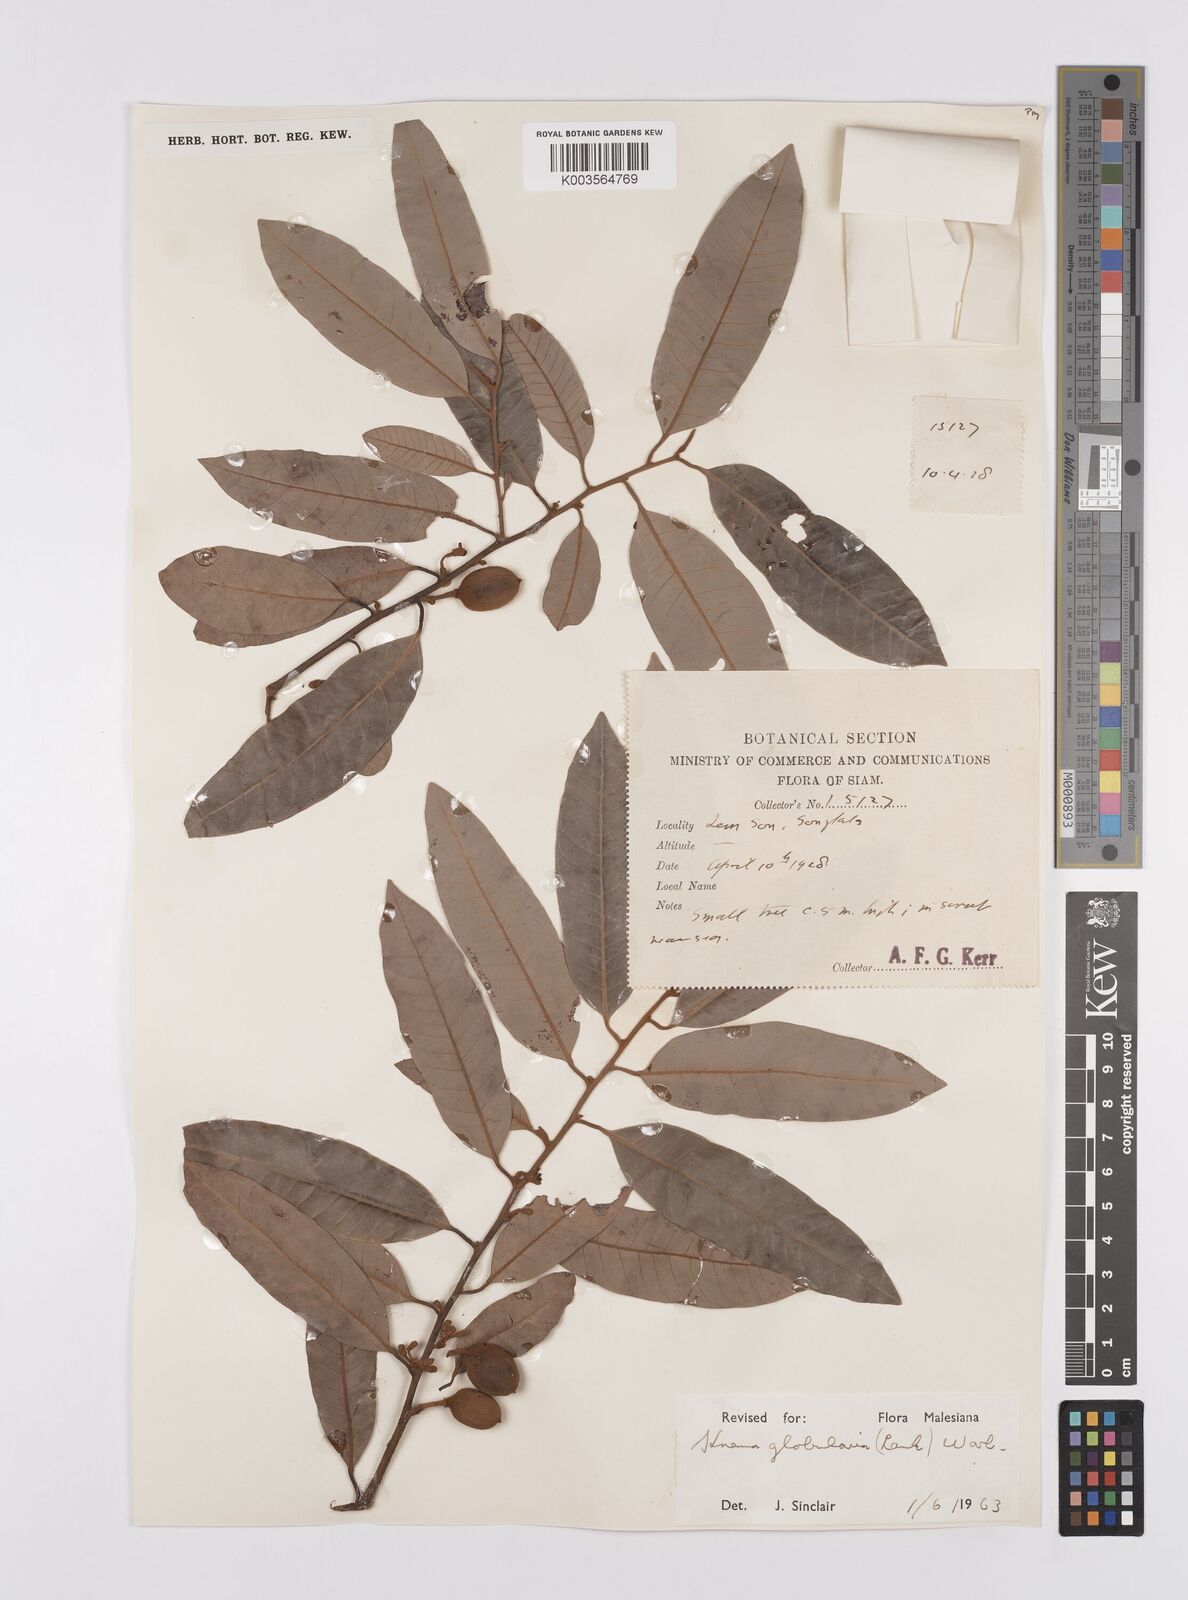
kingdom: Plantae
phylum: Tracheophyta
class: Magnoliopsida
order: Magnoliales
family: Myristicaceae
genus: Knema
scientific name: Knema globularia
